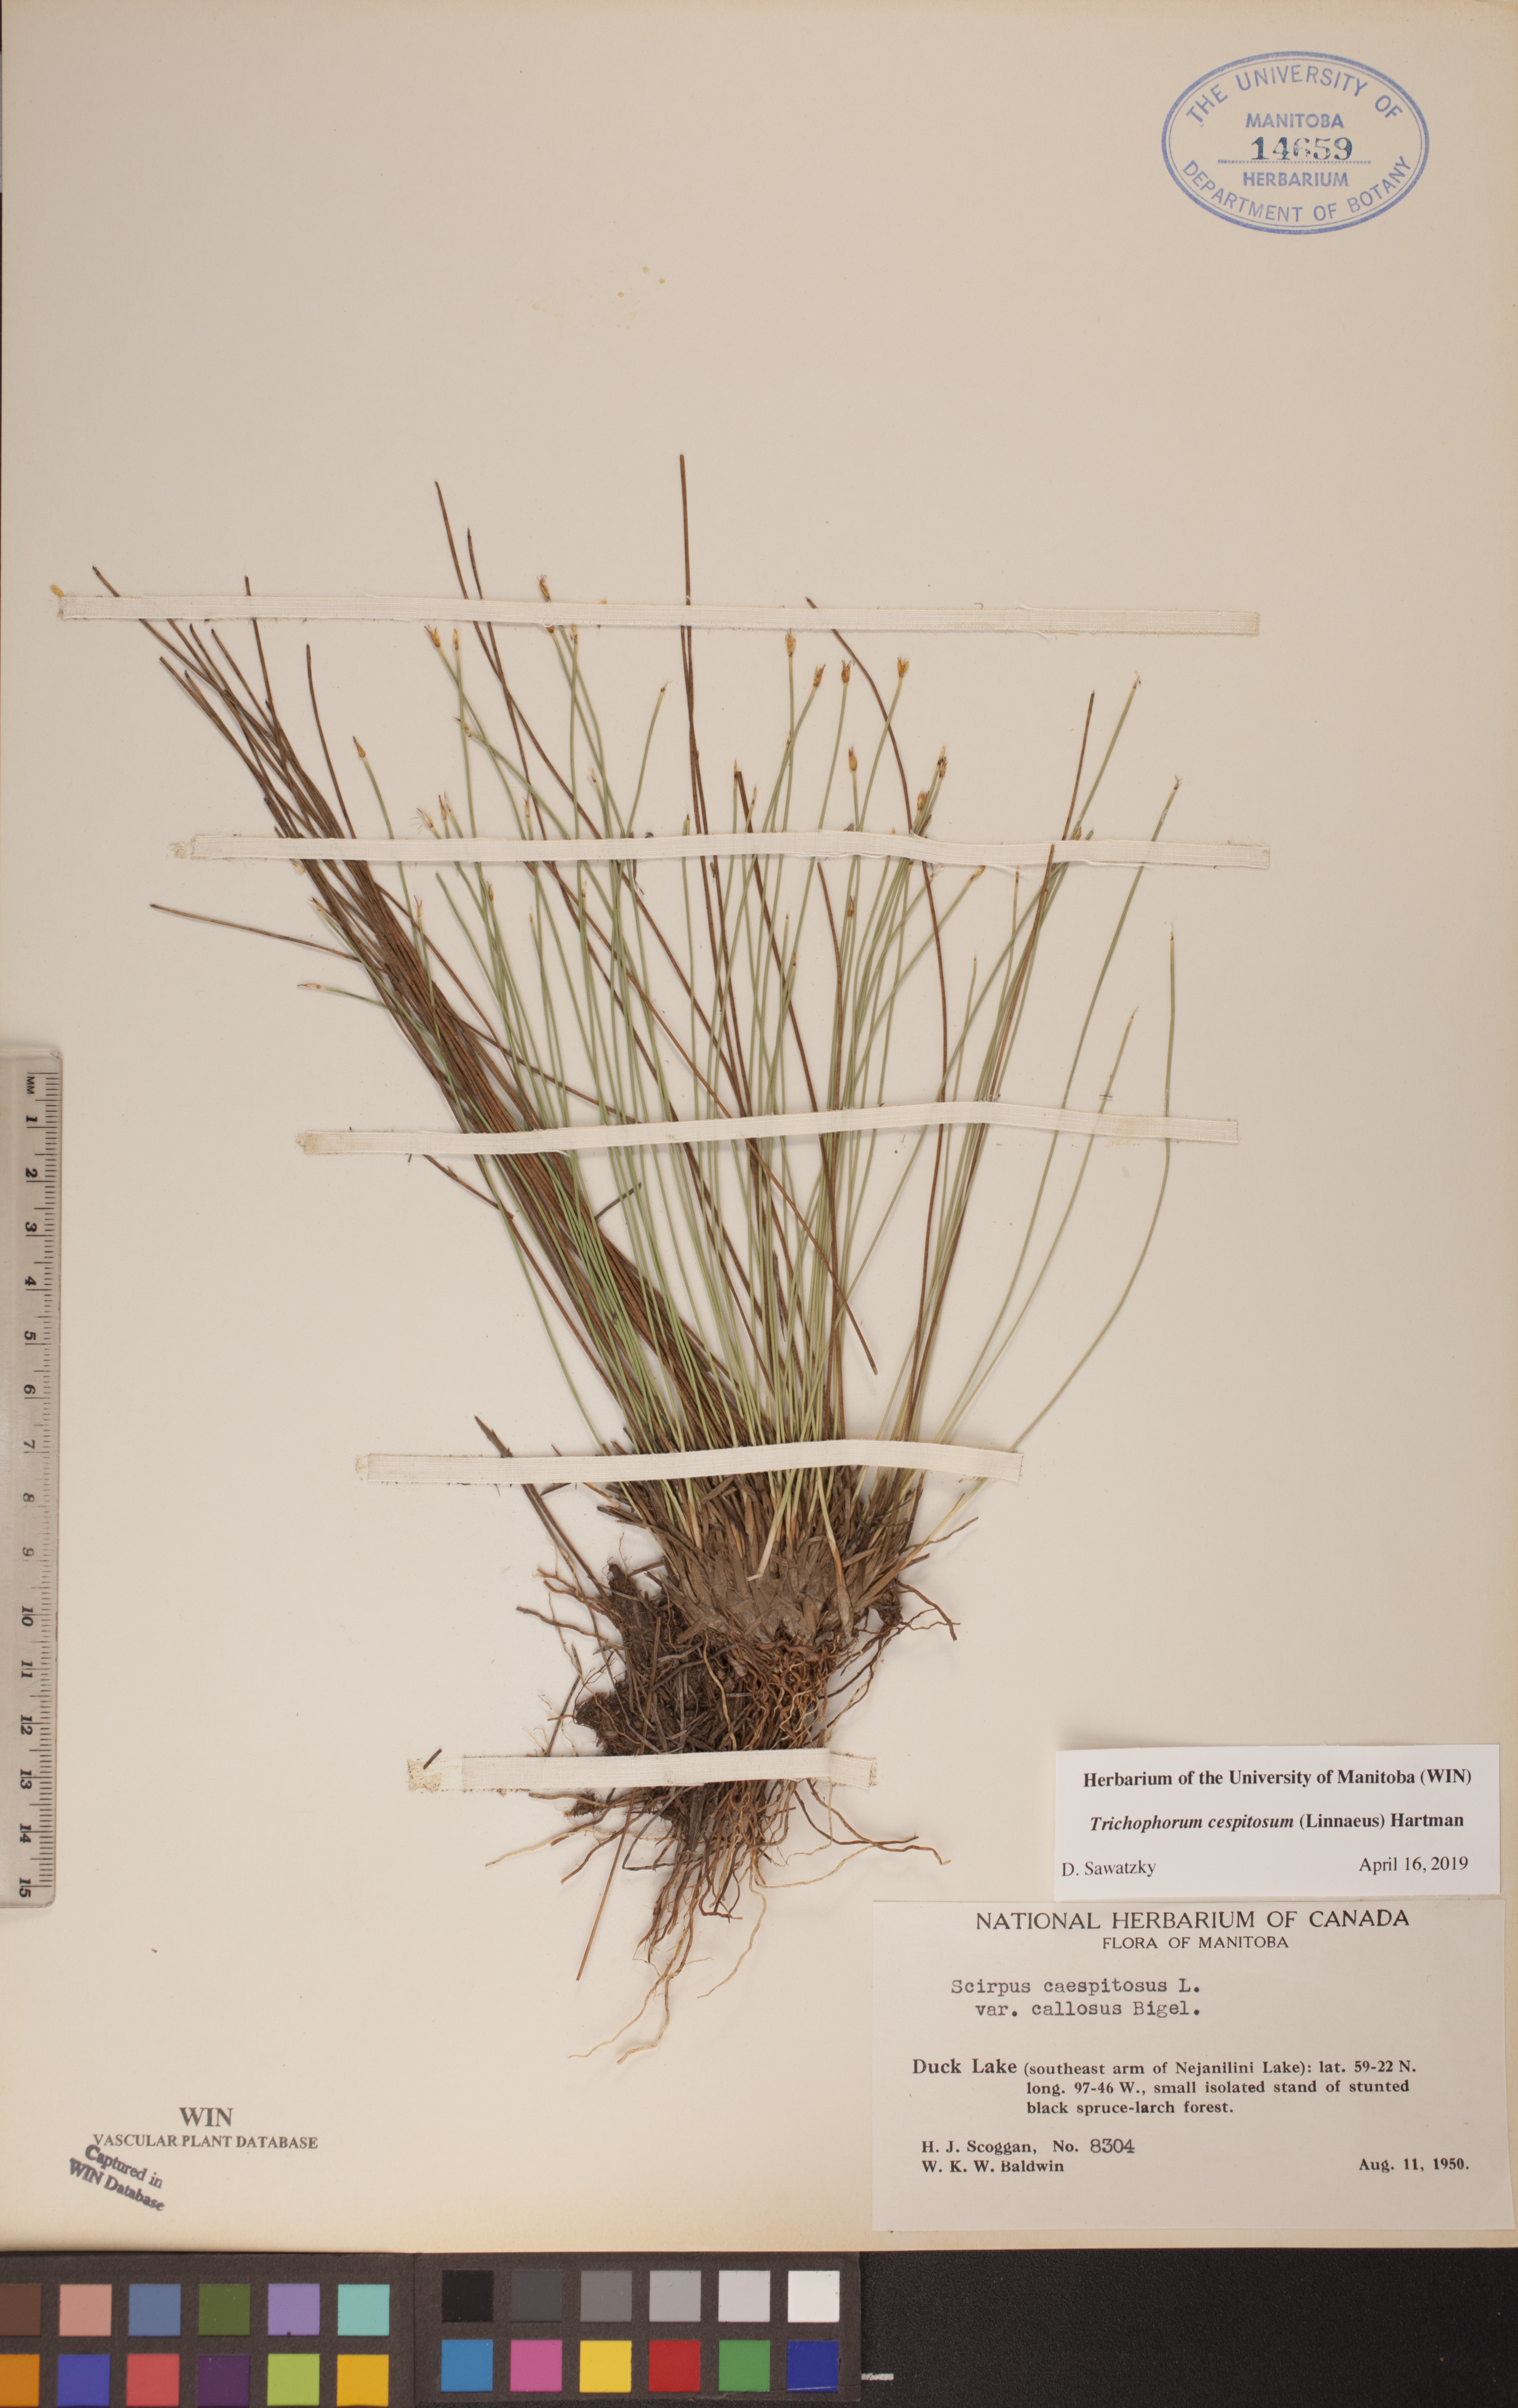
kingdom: Plantae
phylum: Tracheophyta
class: Liliopsida
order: Poales
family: Cyperaceae
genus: Trichophorum
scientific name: Trichophorum cespitosum
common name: Cespitose bulrush
